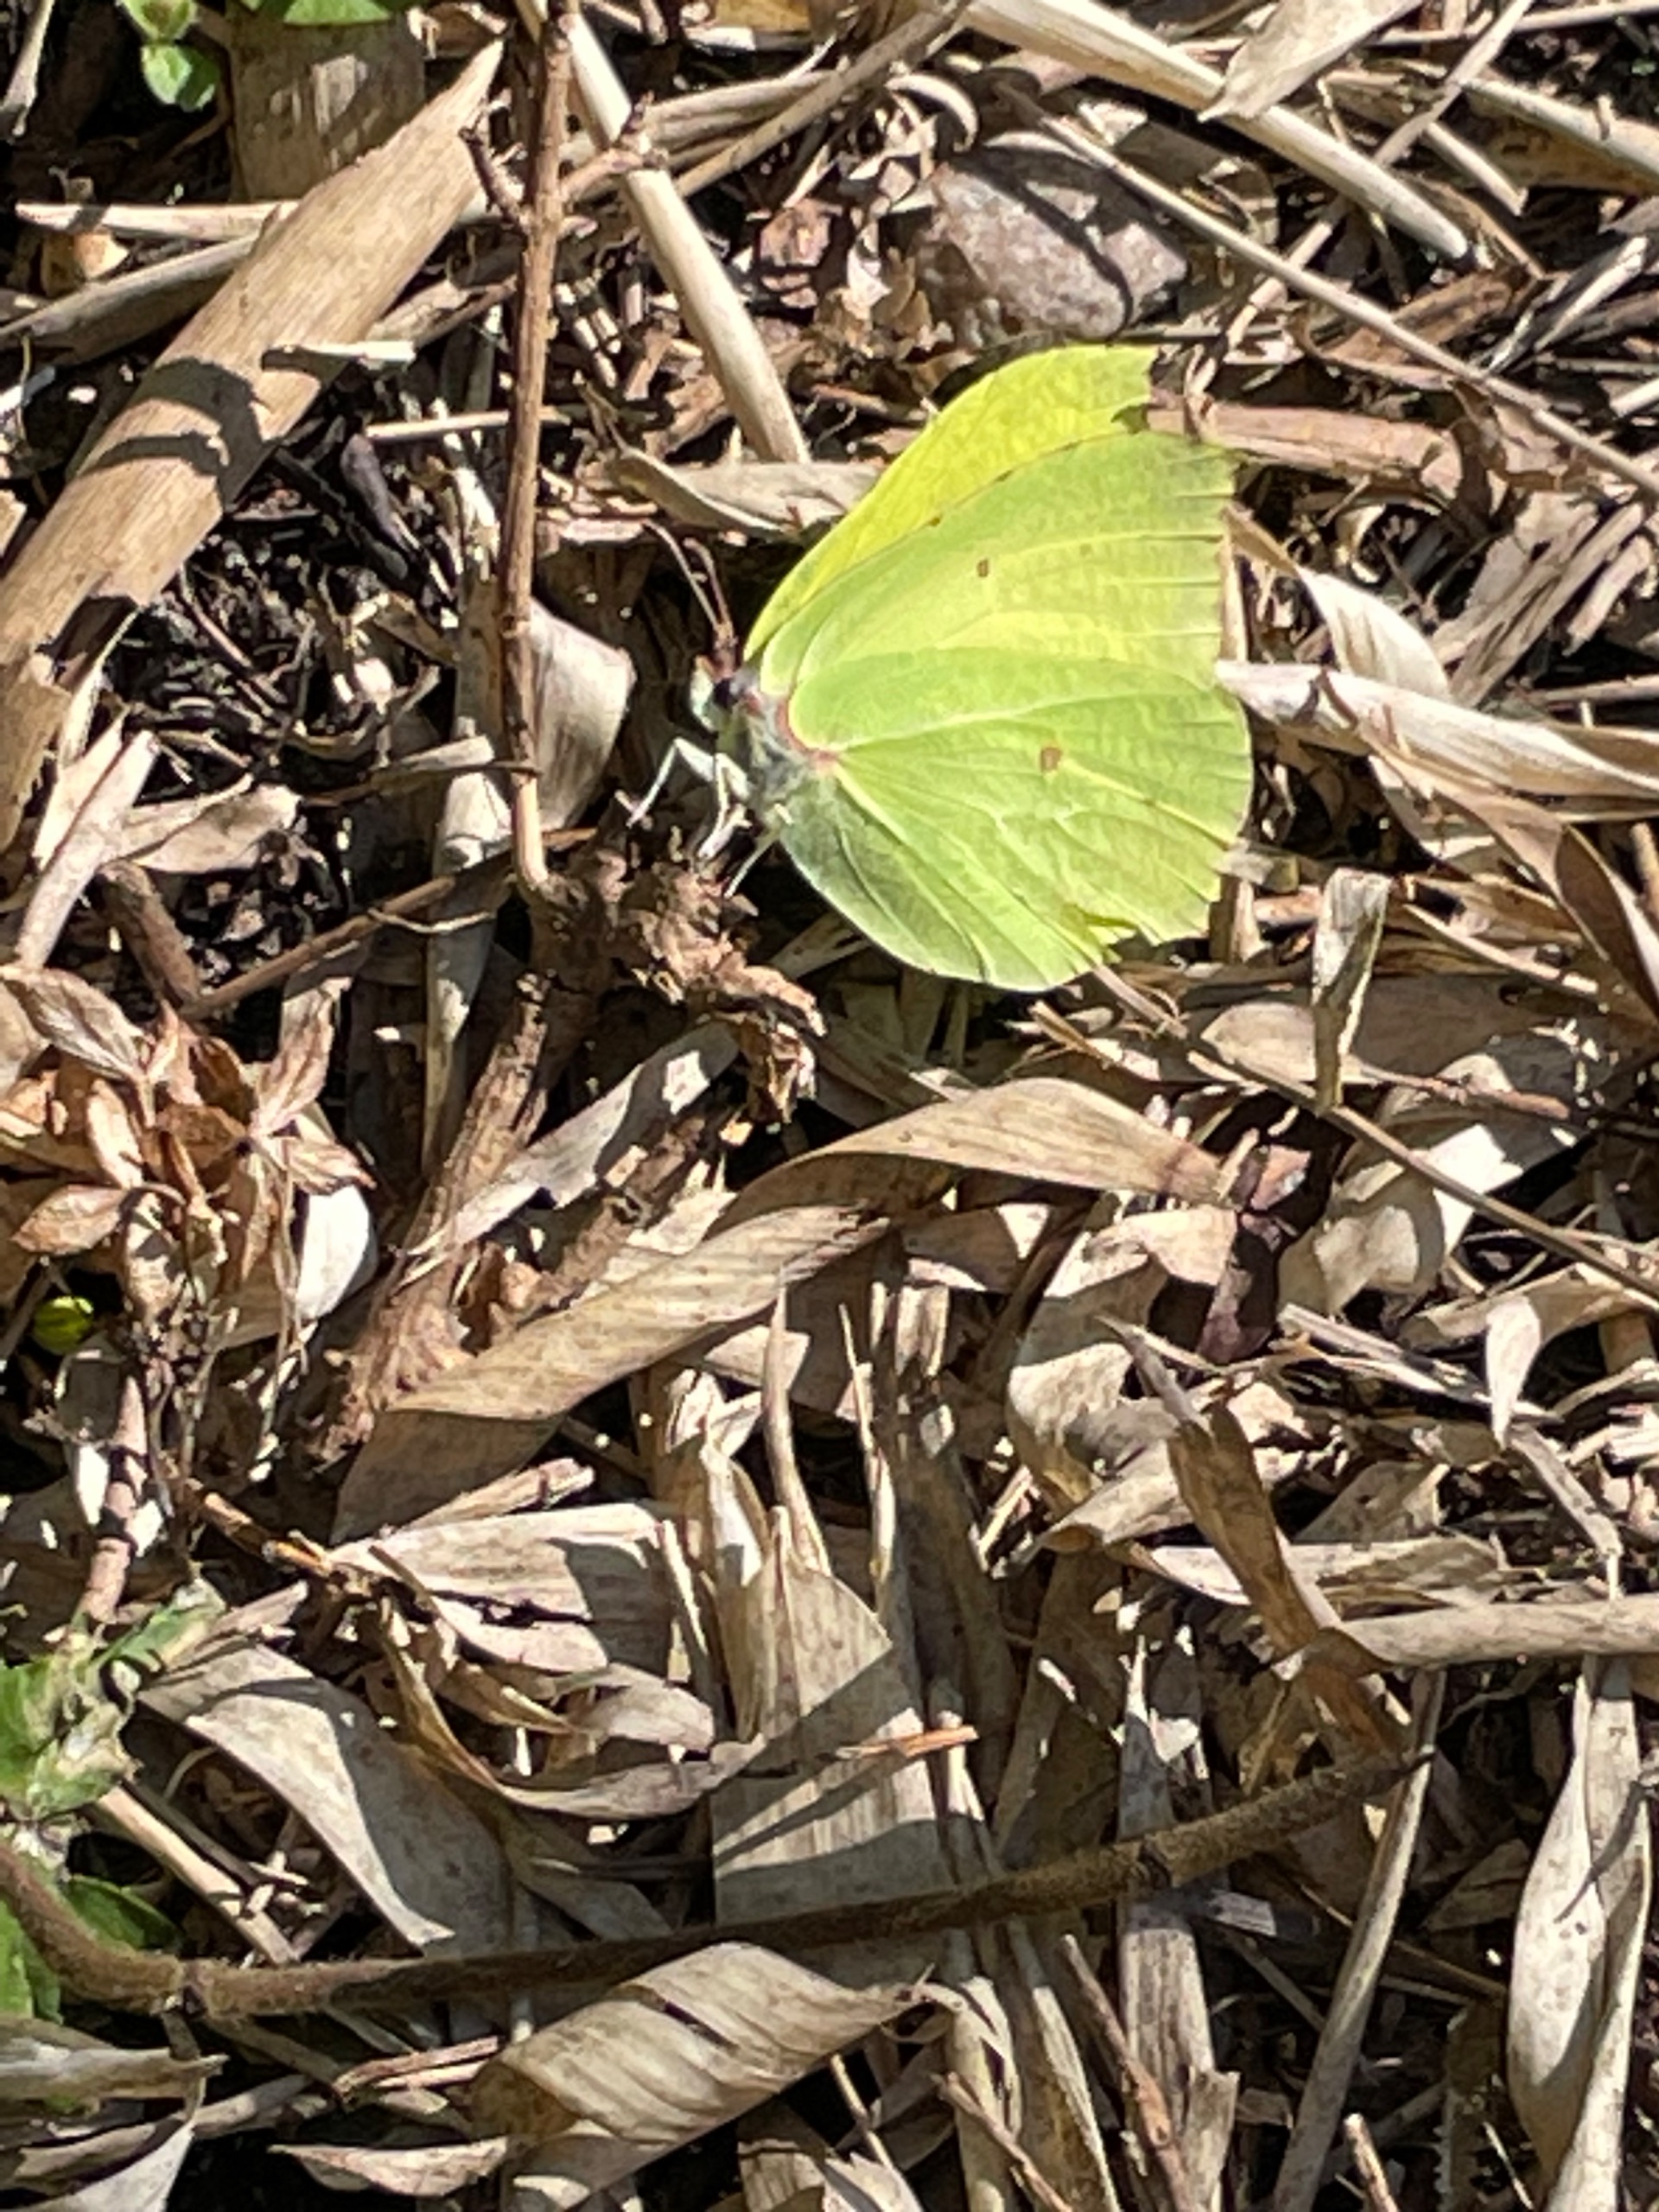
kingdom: Animalia
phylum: Arthropoda
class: Insecta
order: Lepidoptera
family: Pieridae
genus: Gonepteryx
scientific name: Gonepteryx rhamni
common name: Citronsommerfugl
